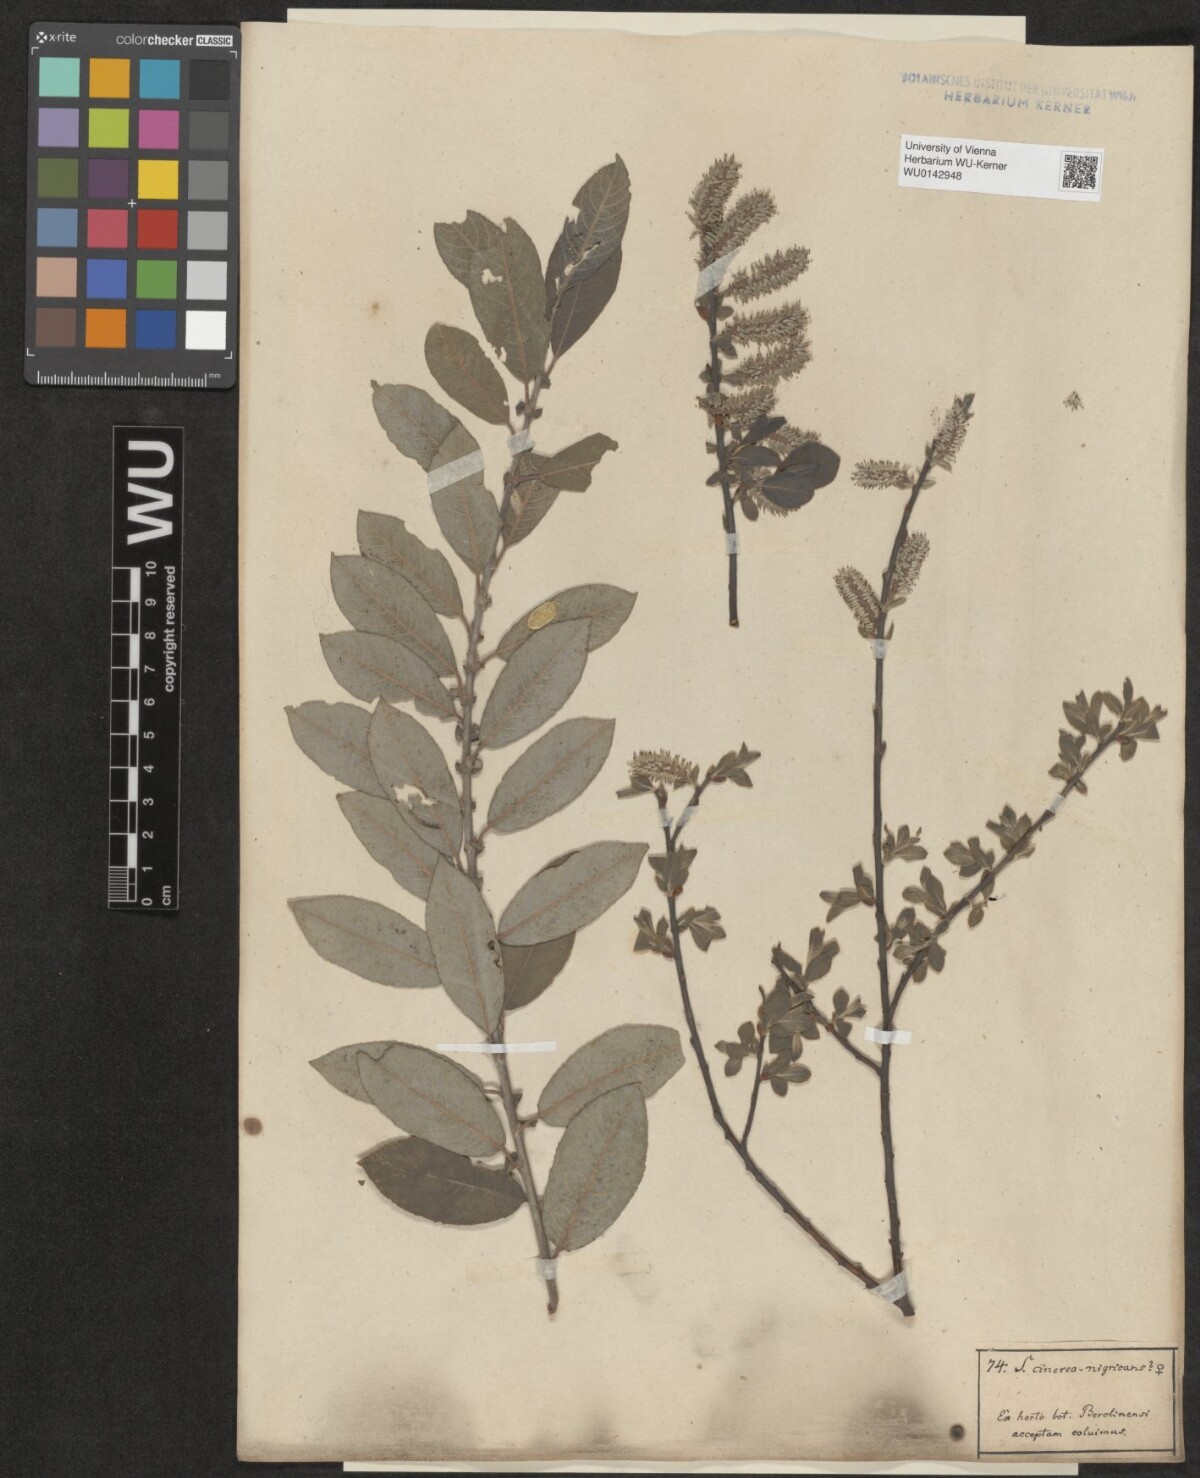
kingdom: Plantae
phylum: Tracheophyta
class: Magnoliopsida
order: Malpighiales
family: Salicaceae
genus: Salix
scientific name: Salix myrsinifolia
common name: Dark-leaved willow
